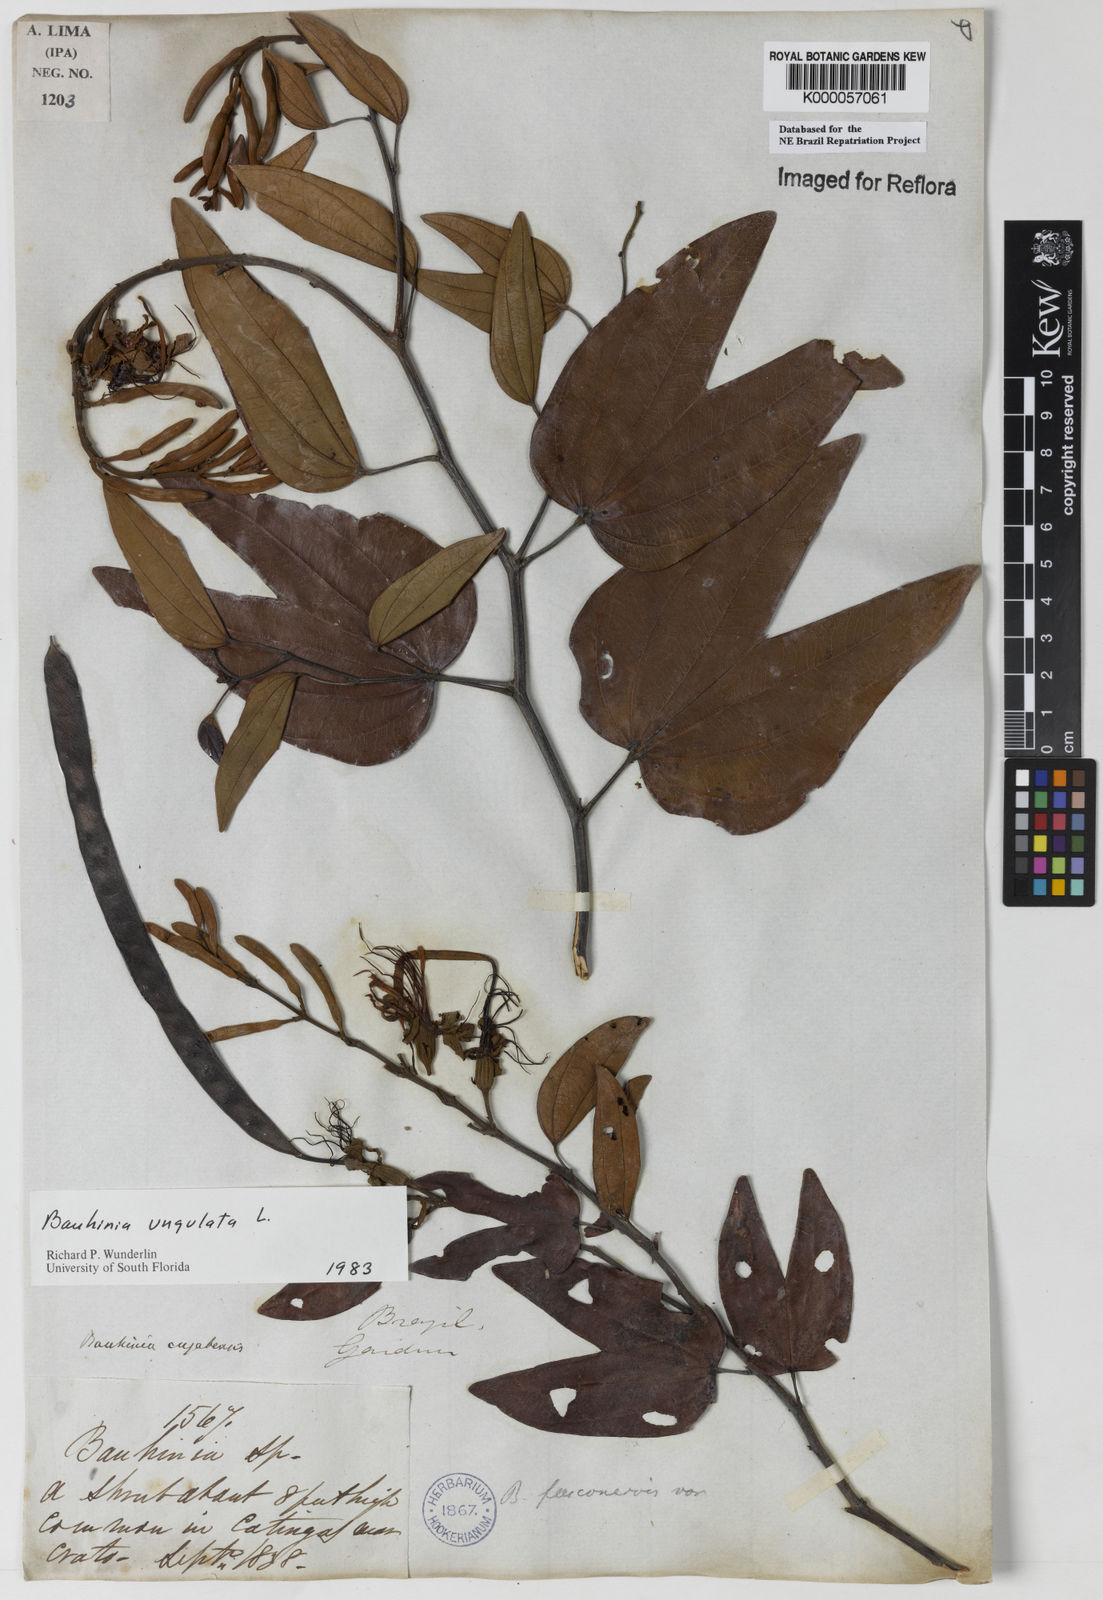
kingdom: Plantae
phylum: Tracheophyta
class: Magnoliopsida
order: Fabales
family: Fabaceae
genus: Bauhinia
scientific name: Bauhinia ungulata
